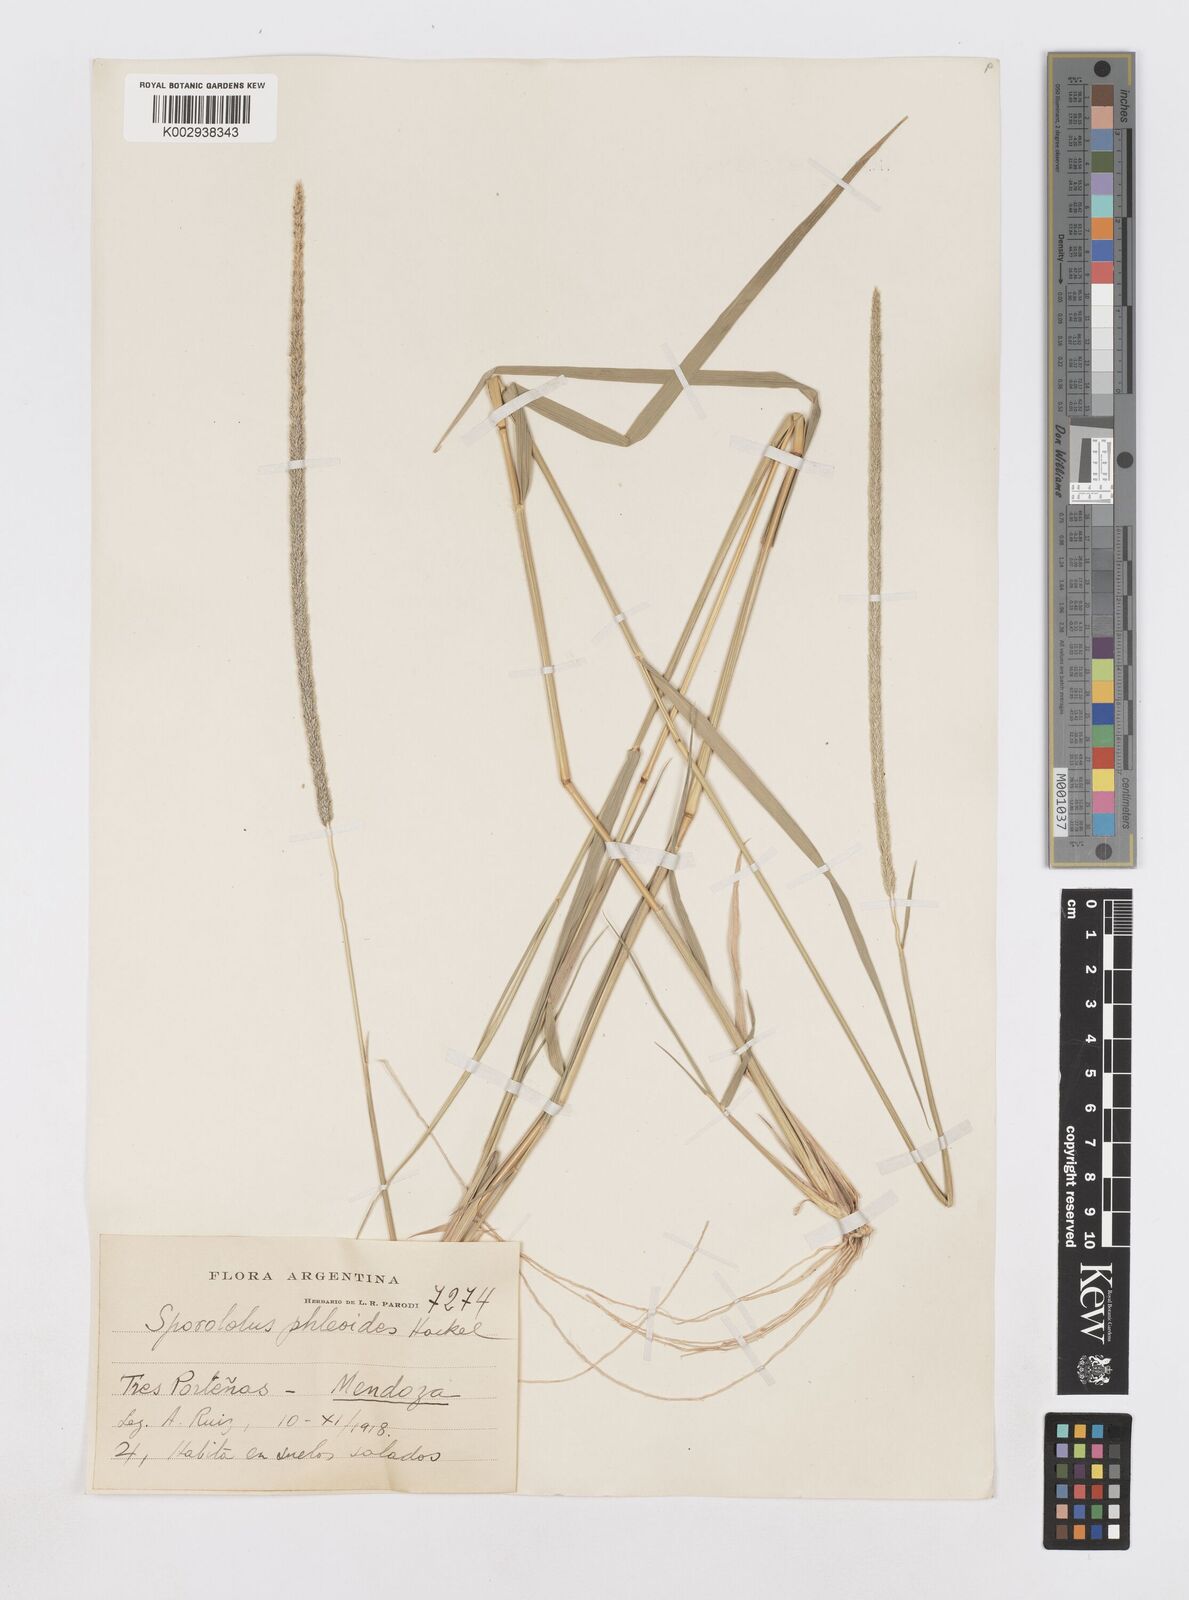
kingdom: Plantae
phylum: Tracheophyta
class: Liliopsida
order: Poales
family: Poaceae
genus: Sporobolus
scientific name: Sporobolus phleoides
